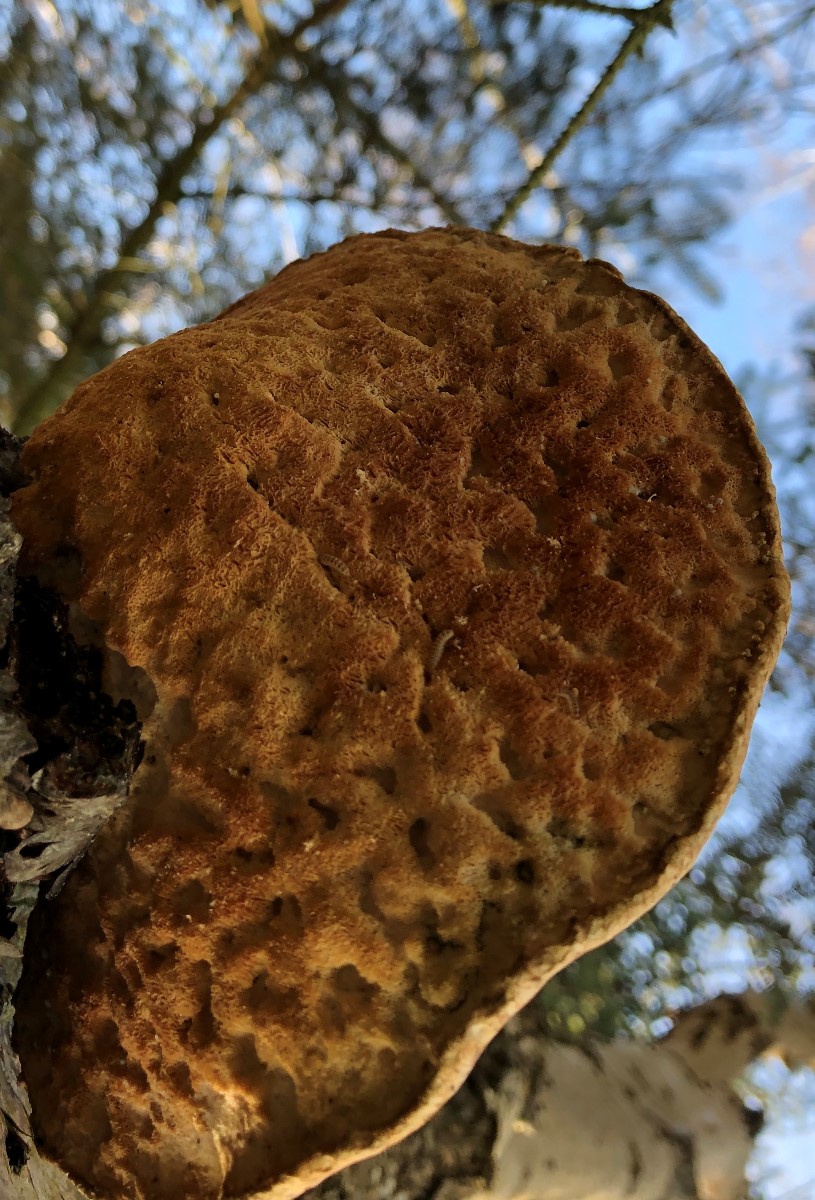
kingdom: Fungi
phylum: Basidiomycota
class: Agaricomycetes
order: Polyporales
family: Fomitopsidaceae
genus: Fomitopsis
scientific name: Fomitopsis betulina
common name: birkeporesvamp
